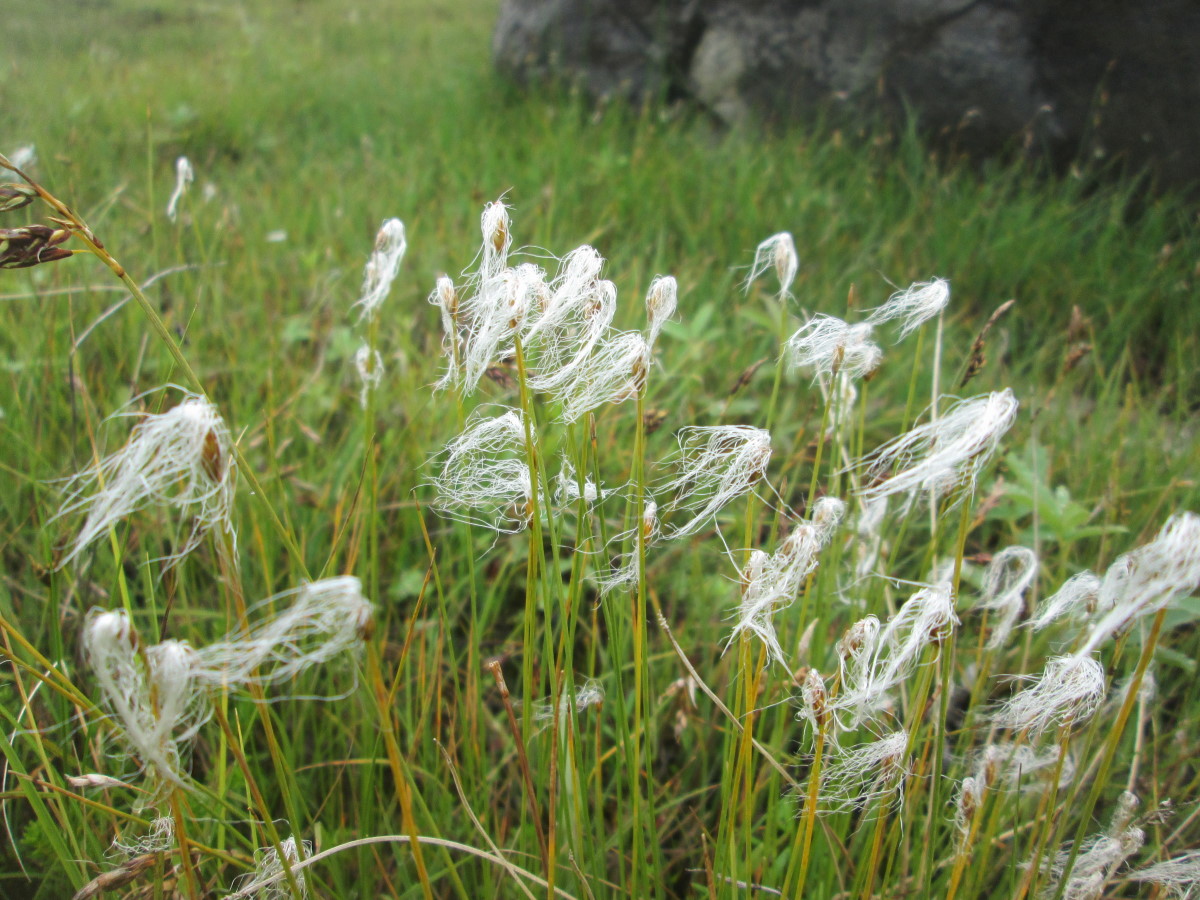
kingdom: Plantae
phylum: Tracheophyta
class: Liliopsida
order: Poales
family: Cyperaceae
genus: Trichophorum
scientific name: Trichophorum alpinum
